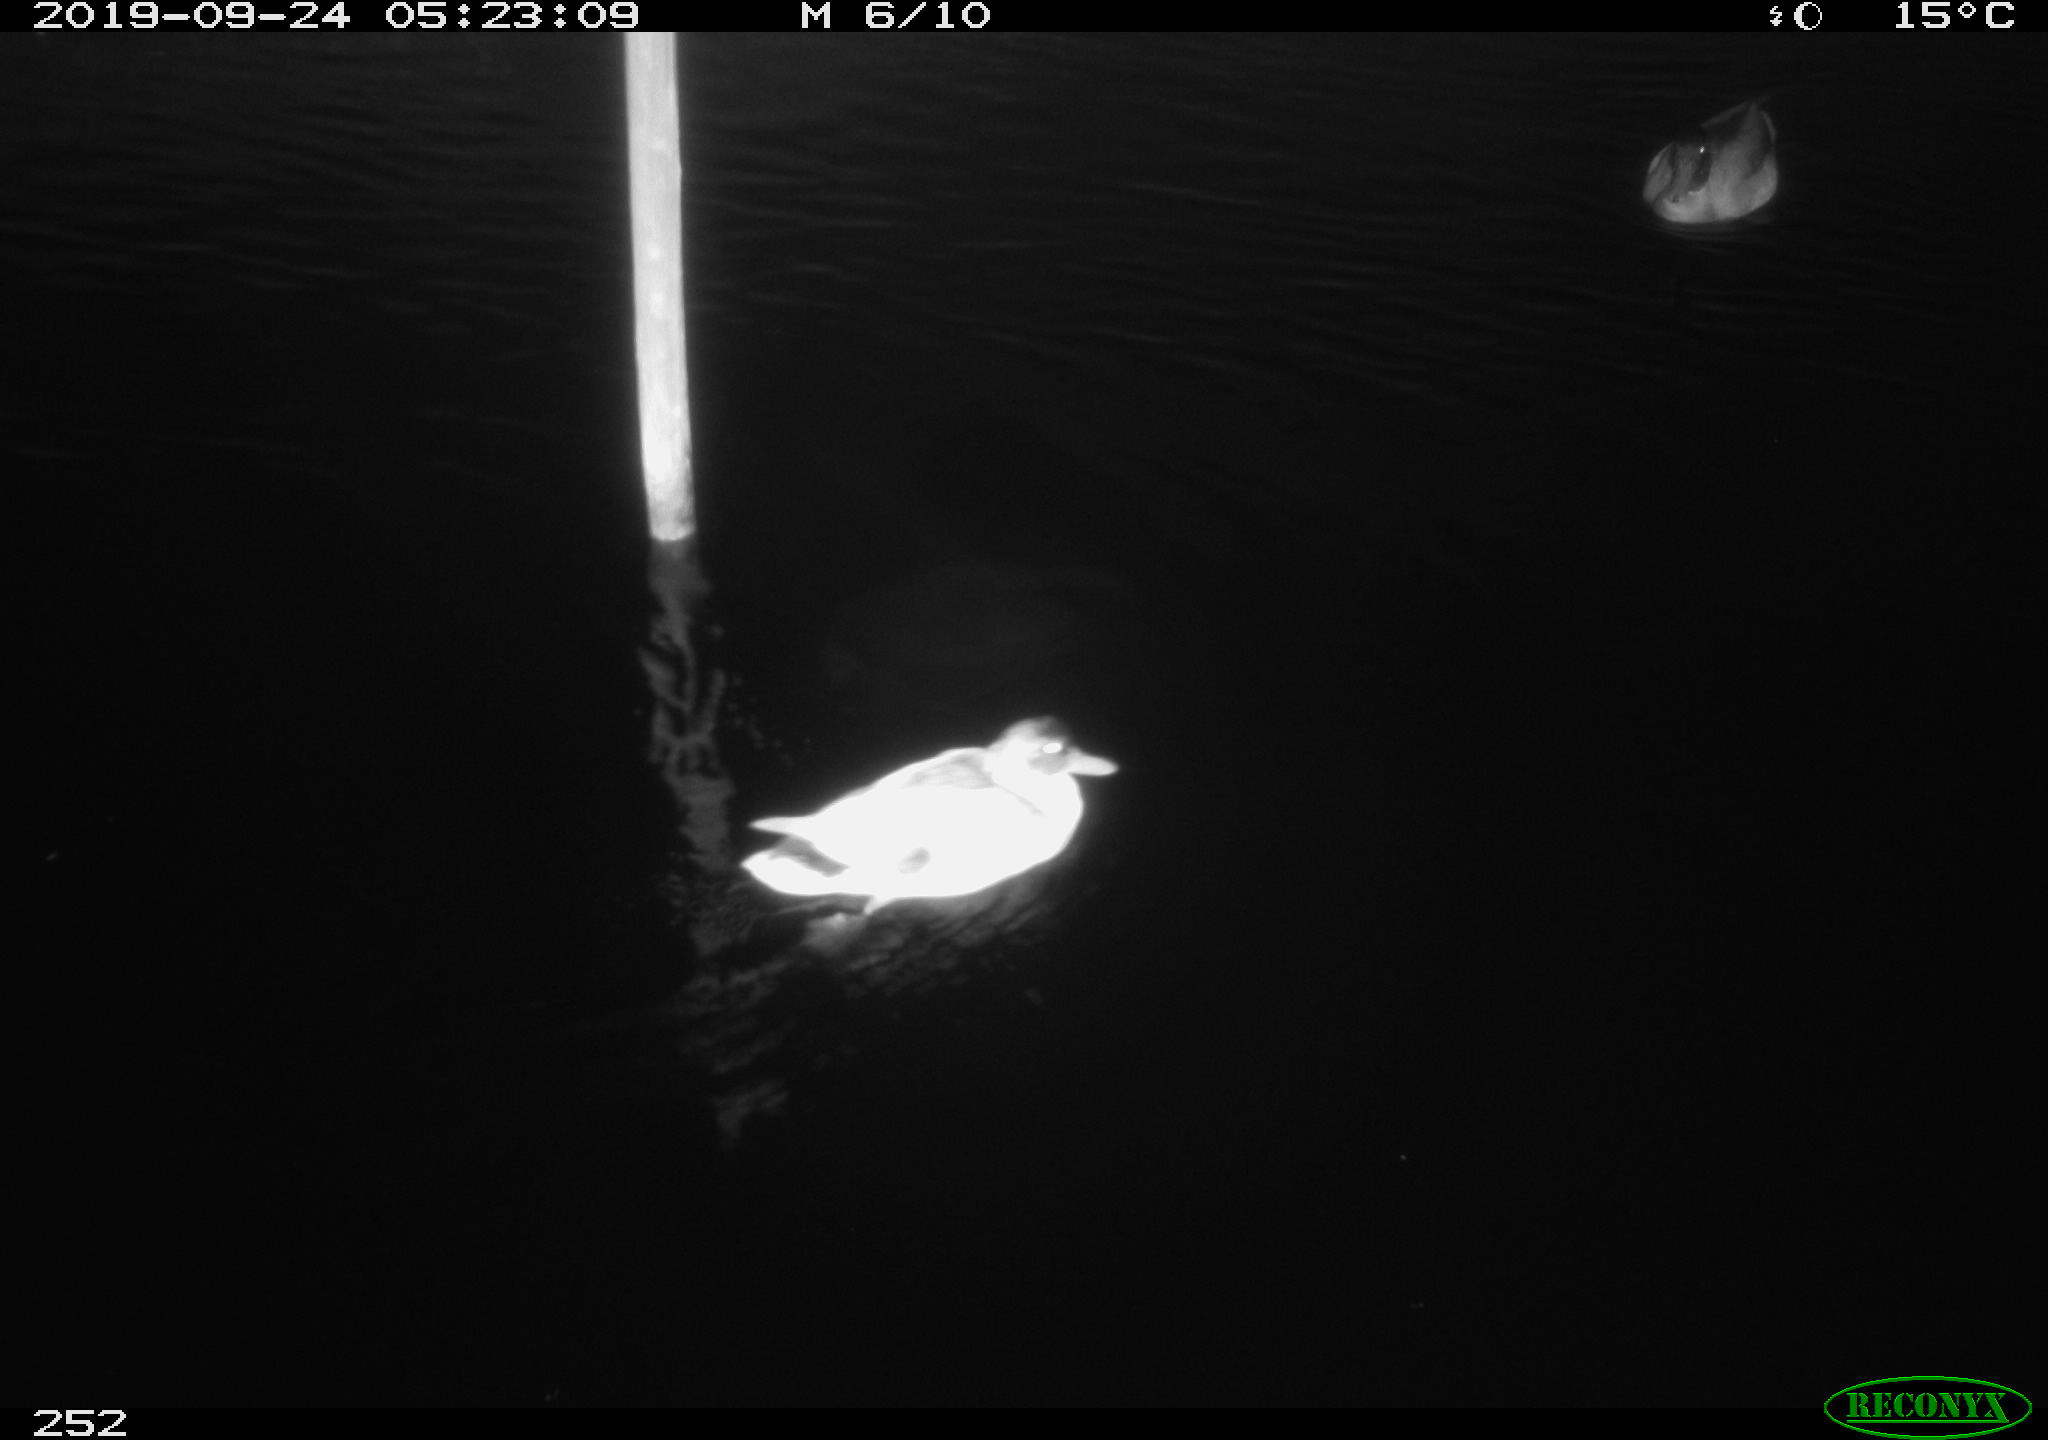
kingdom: Animalia
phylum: Chordata
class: Aves
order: Anseriformes
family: Anatidae
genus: Anas
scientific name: Anas platyrhynchos
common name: Mallard
